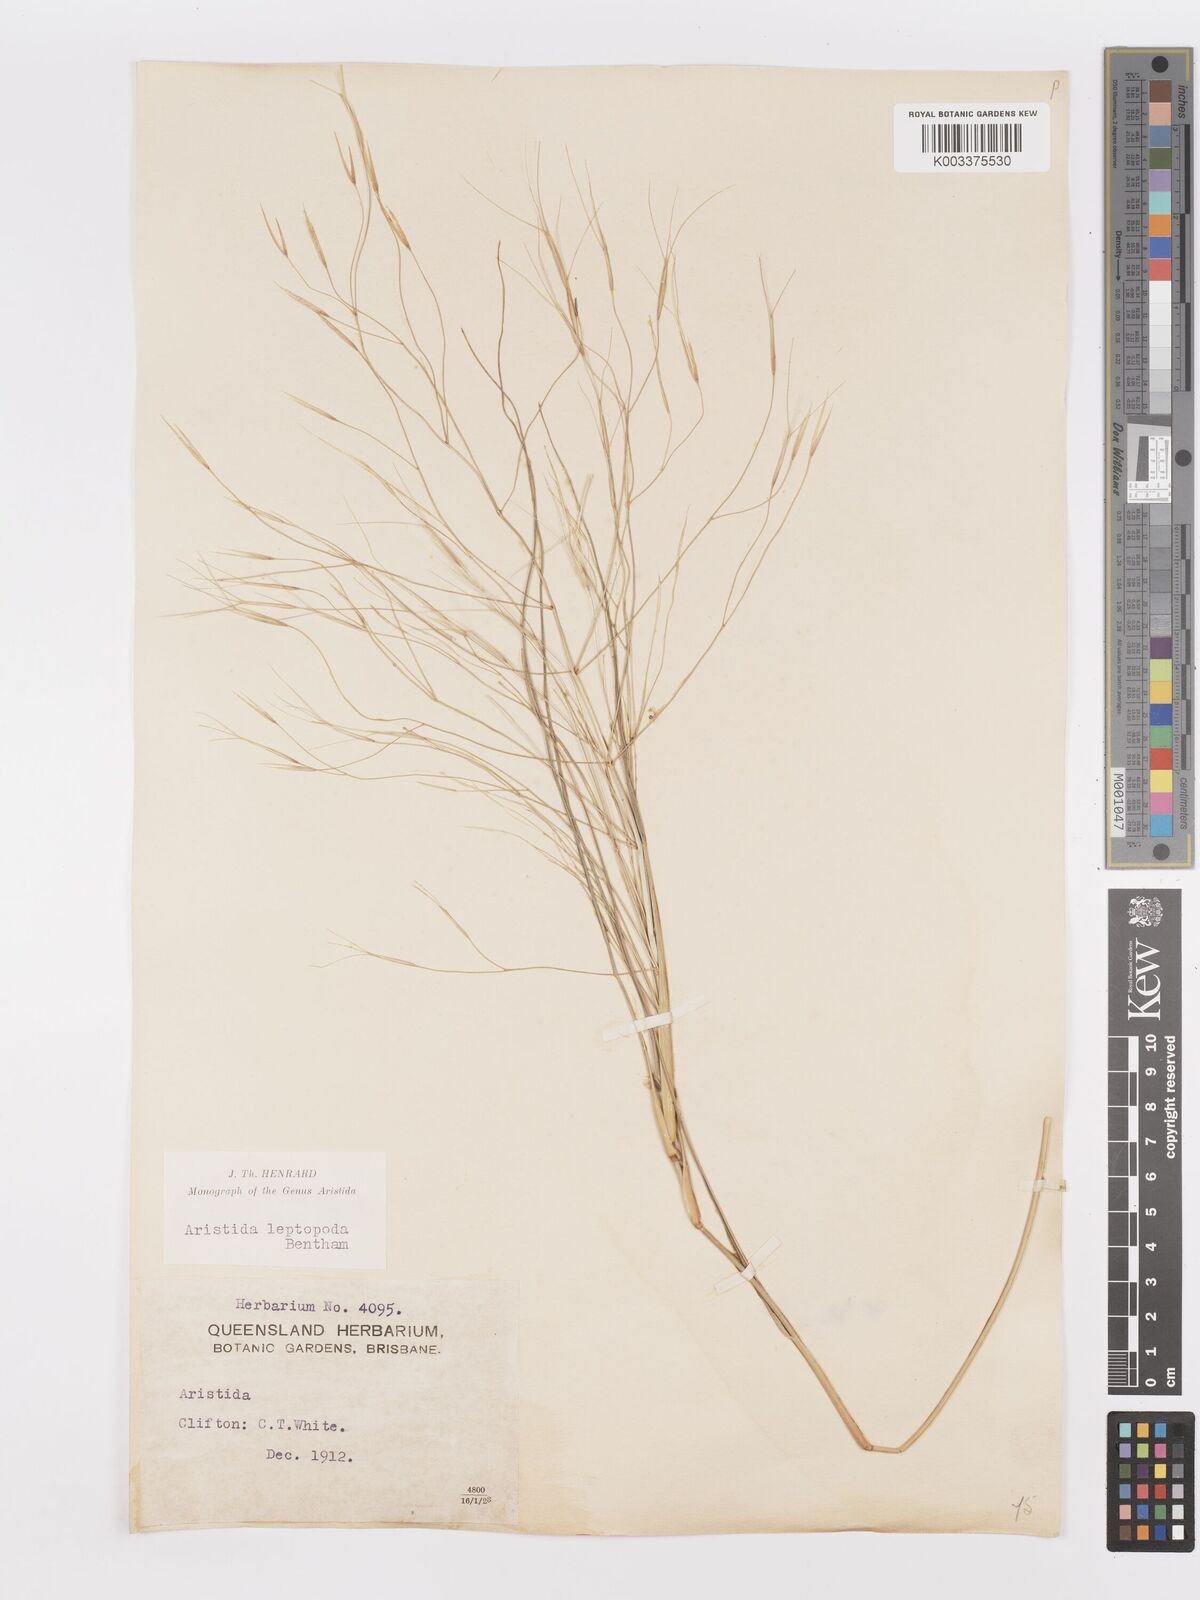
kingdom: Plantae
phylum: Tracheophyta
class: Liliopsida
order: Poales
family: Poaceae
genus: Aristida
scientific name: Aristida leptopoda
